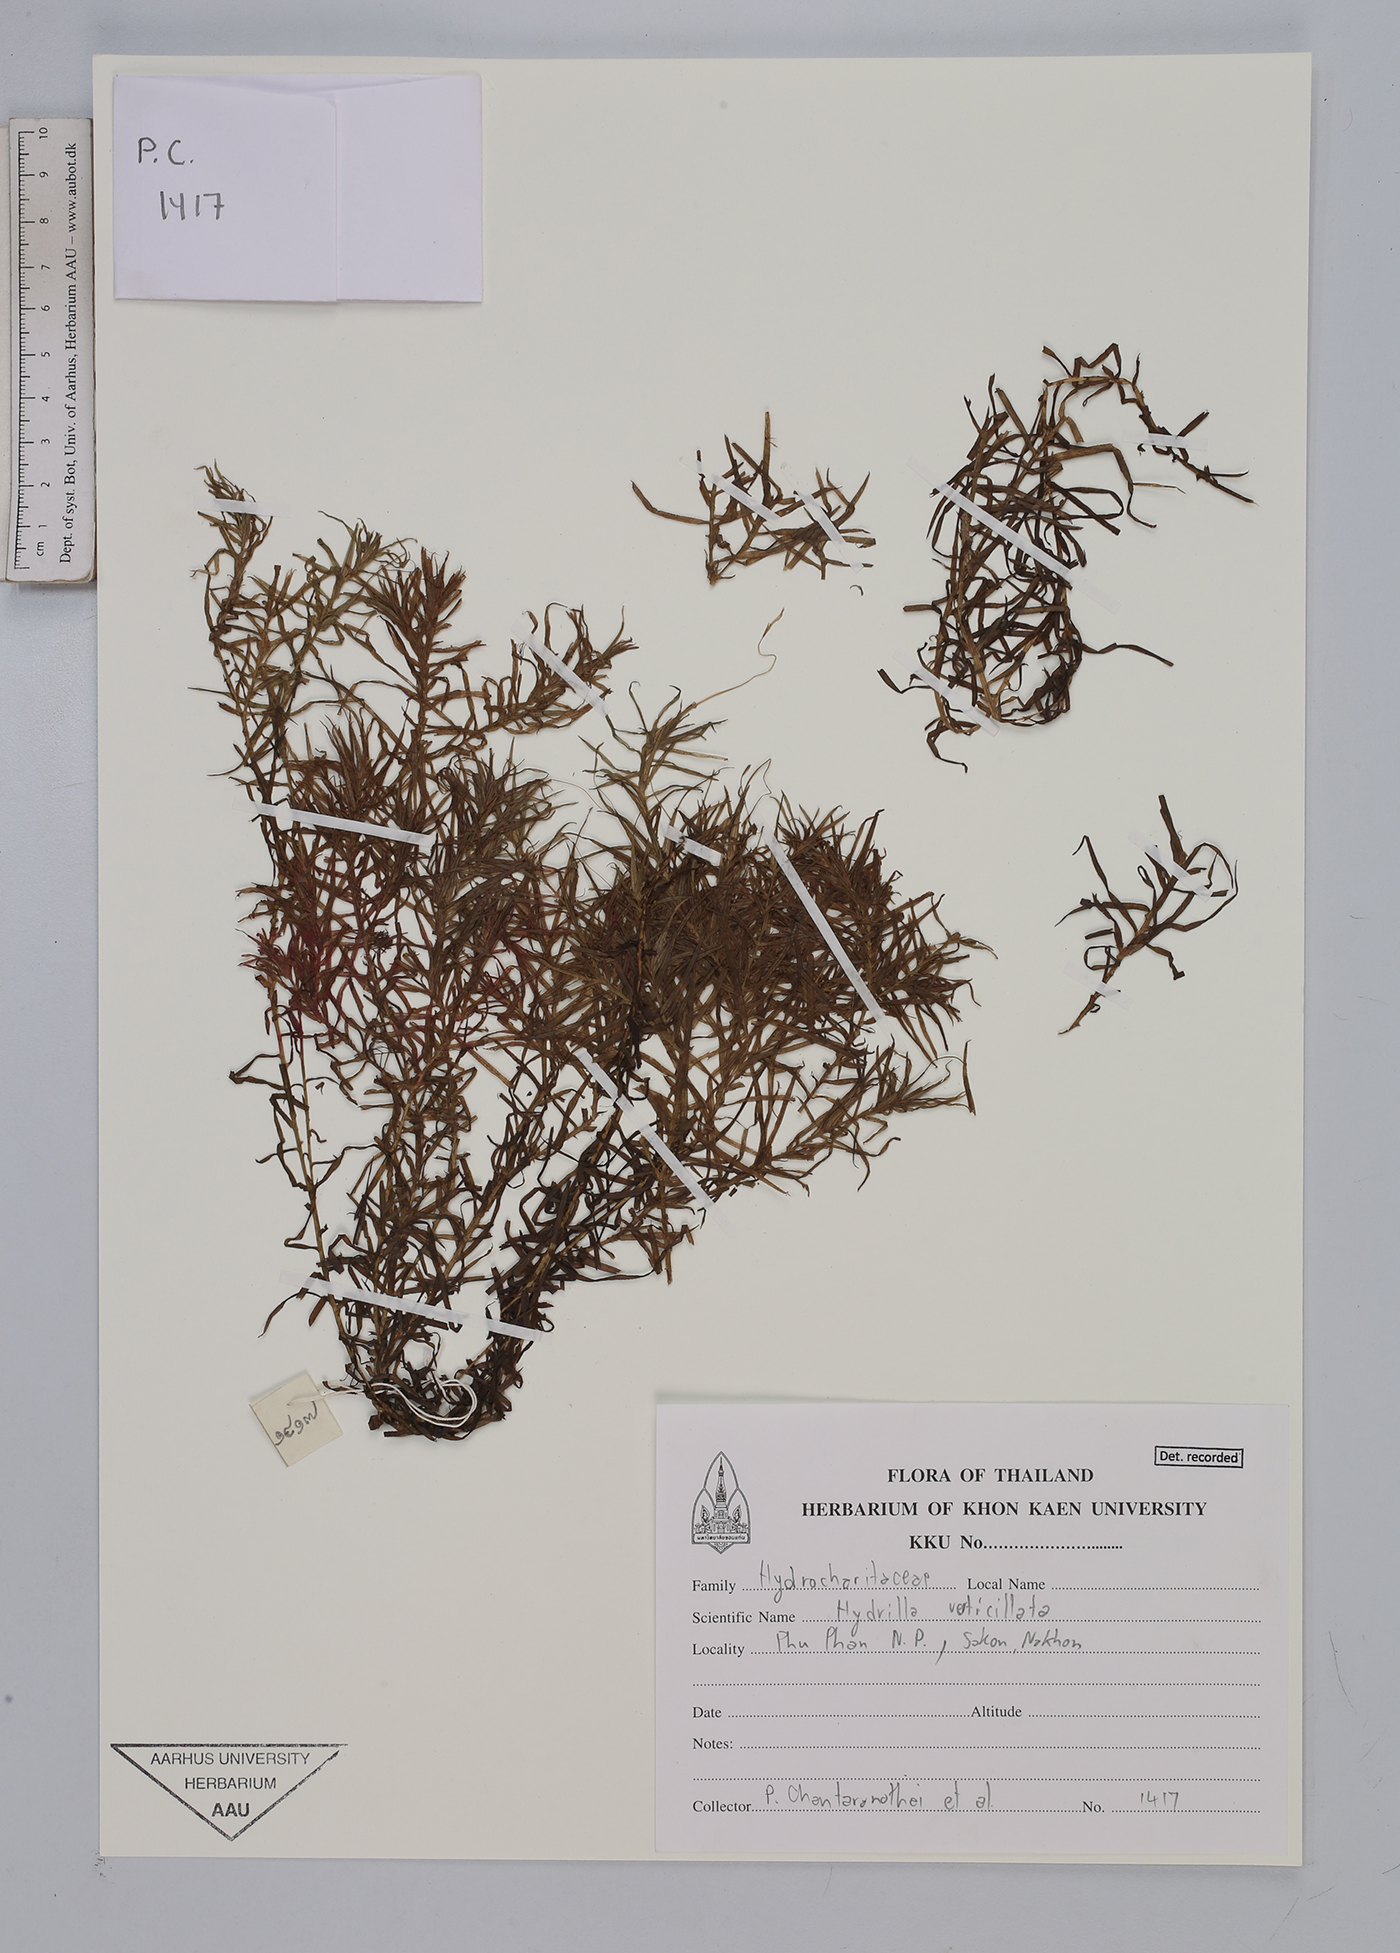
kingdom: Plantae
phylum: Tracheophyta
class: Liliopsida
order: Alismatales
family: Hydrocharitaceae
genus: Hydrilla
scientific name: Hydrilla verticillata
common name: Florida-elodea
